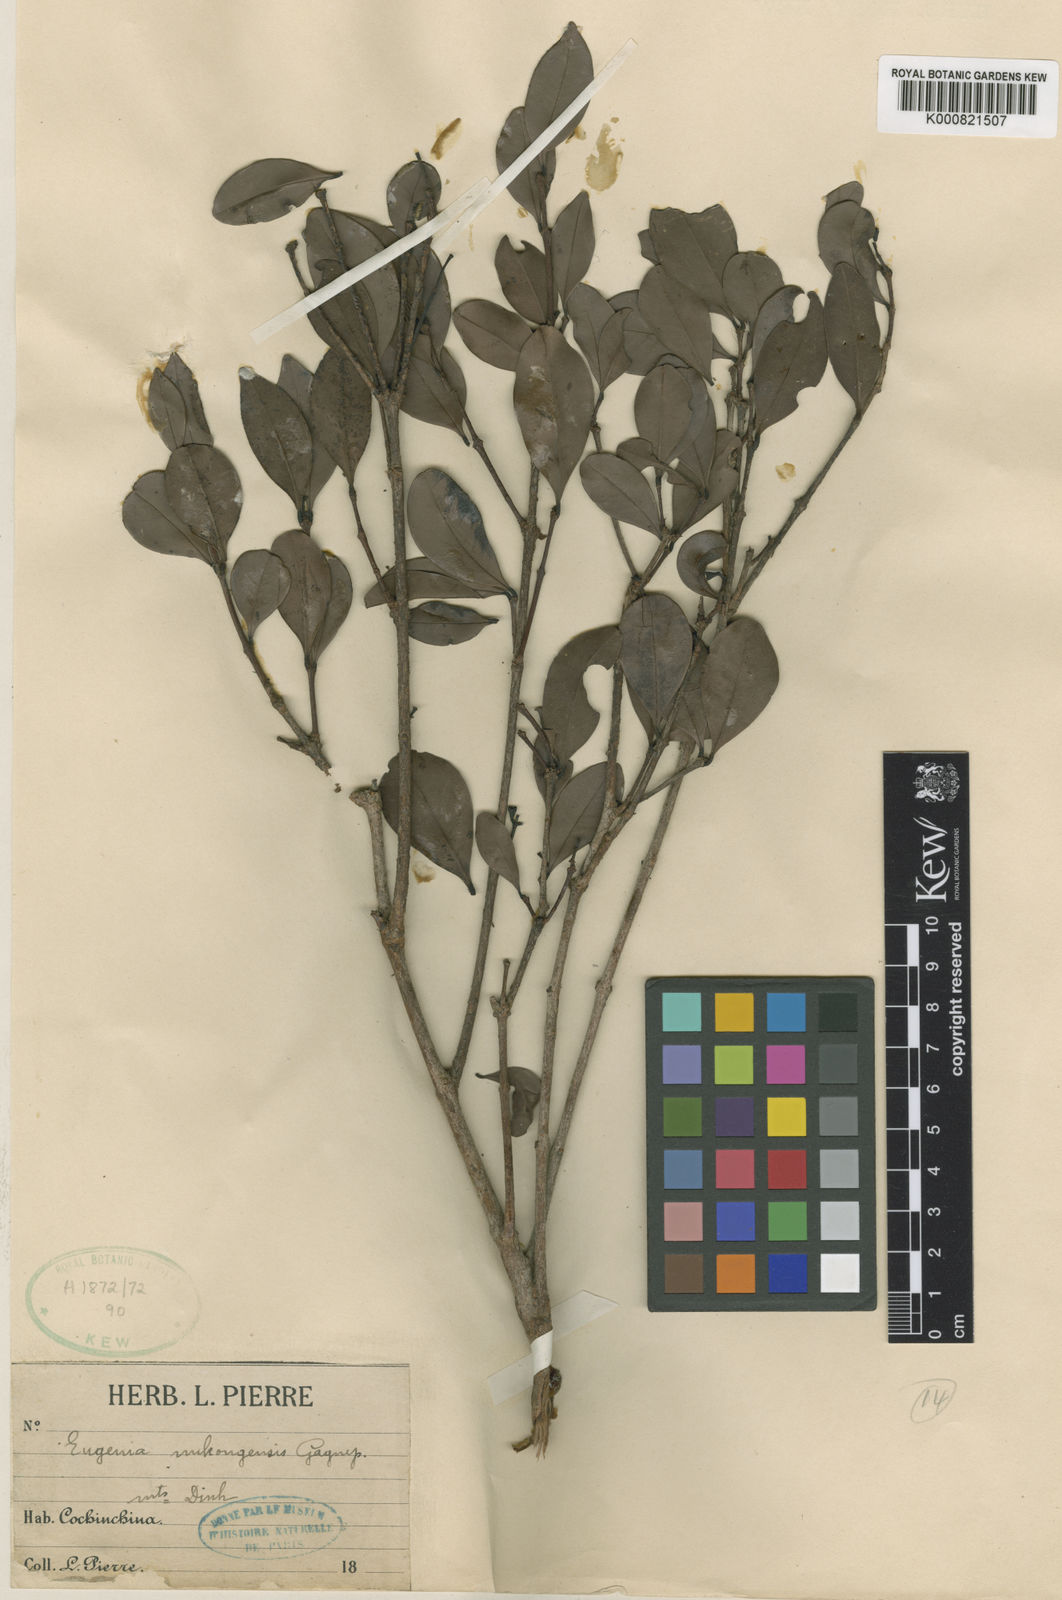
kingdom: Plantae
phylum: Tracheophyta
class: Magnoliopsida
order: Myrtales
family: Myrtaceae
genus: Eugenia
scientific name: Eugenia uniflora
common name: Surinam cherry
